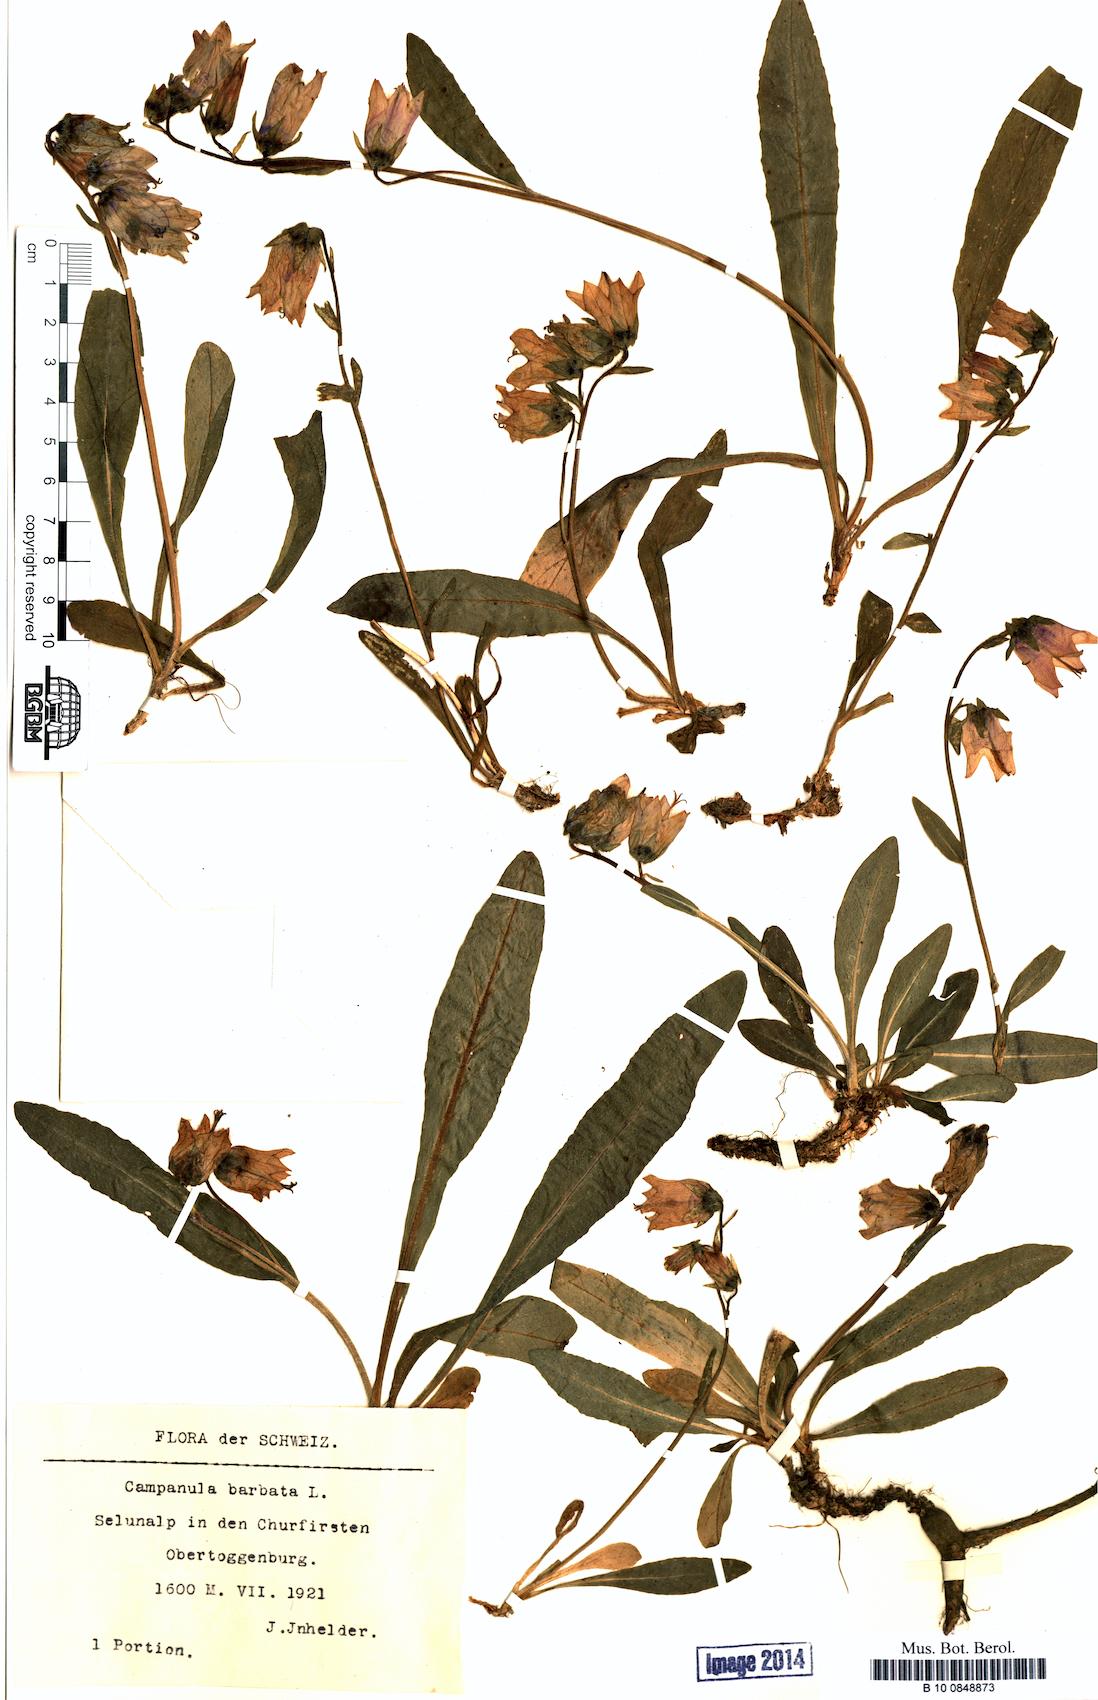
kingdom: Plantae
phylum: Tracheophyta
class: Magnoliopsida
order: Asterales
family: Campanulaceae
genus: Campanula
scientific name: Campanula barbata
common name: Bearded bellflower
